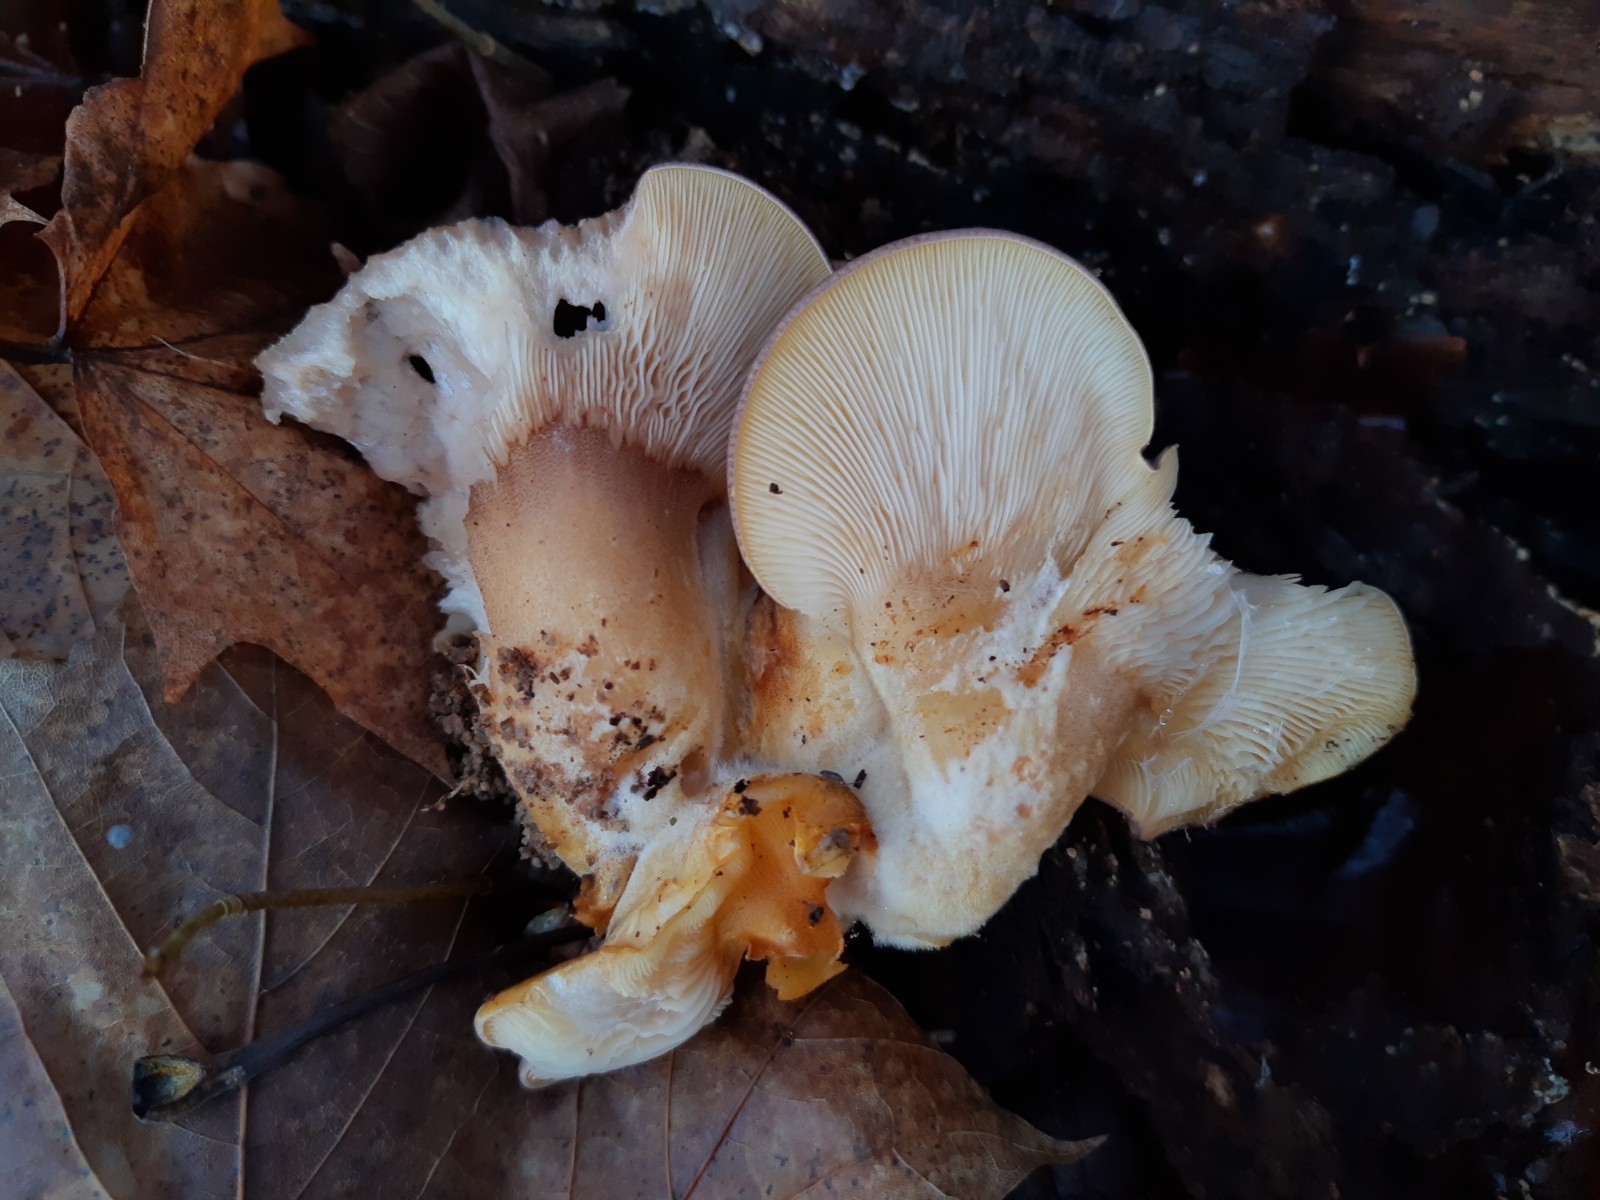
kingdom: Fungi
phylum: Basidiomycota
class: Agaricomycetes
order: Agaricales
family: Sarcomyxaceae
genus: Sarcomyxa
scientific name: Sarcomyxa serotina
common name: gummihat
